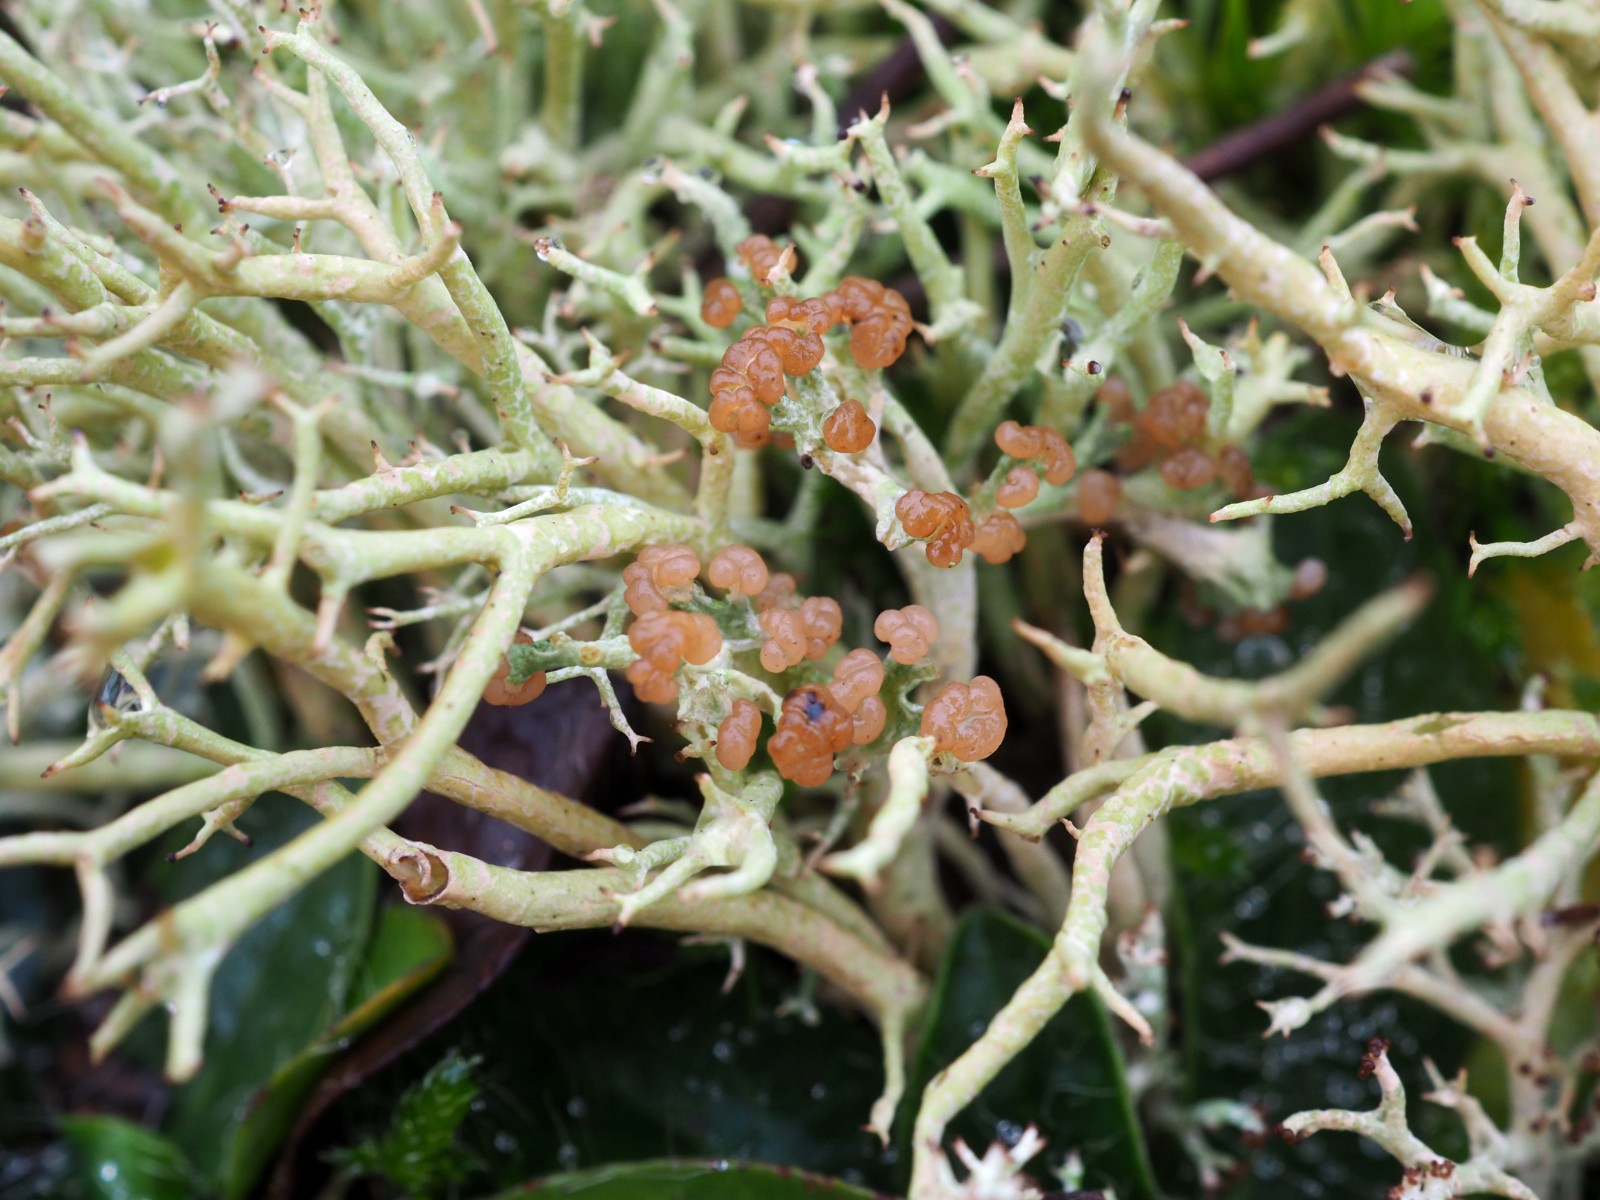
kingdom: Fungi
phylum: Ascomycota
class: Lecanoromycetes
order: Lecanorales
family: Cladoniaceae
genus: Cladonia
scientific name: Cladonia
